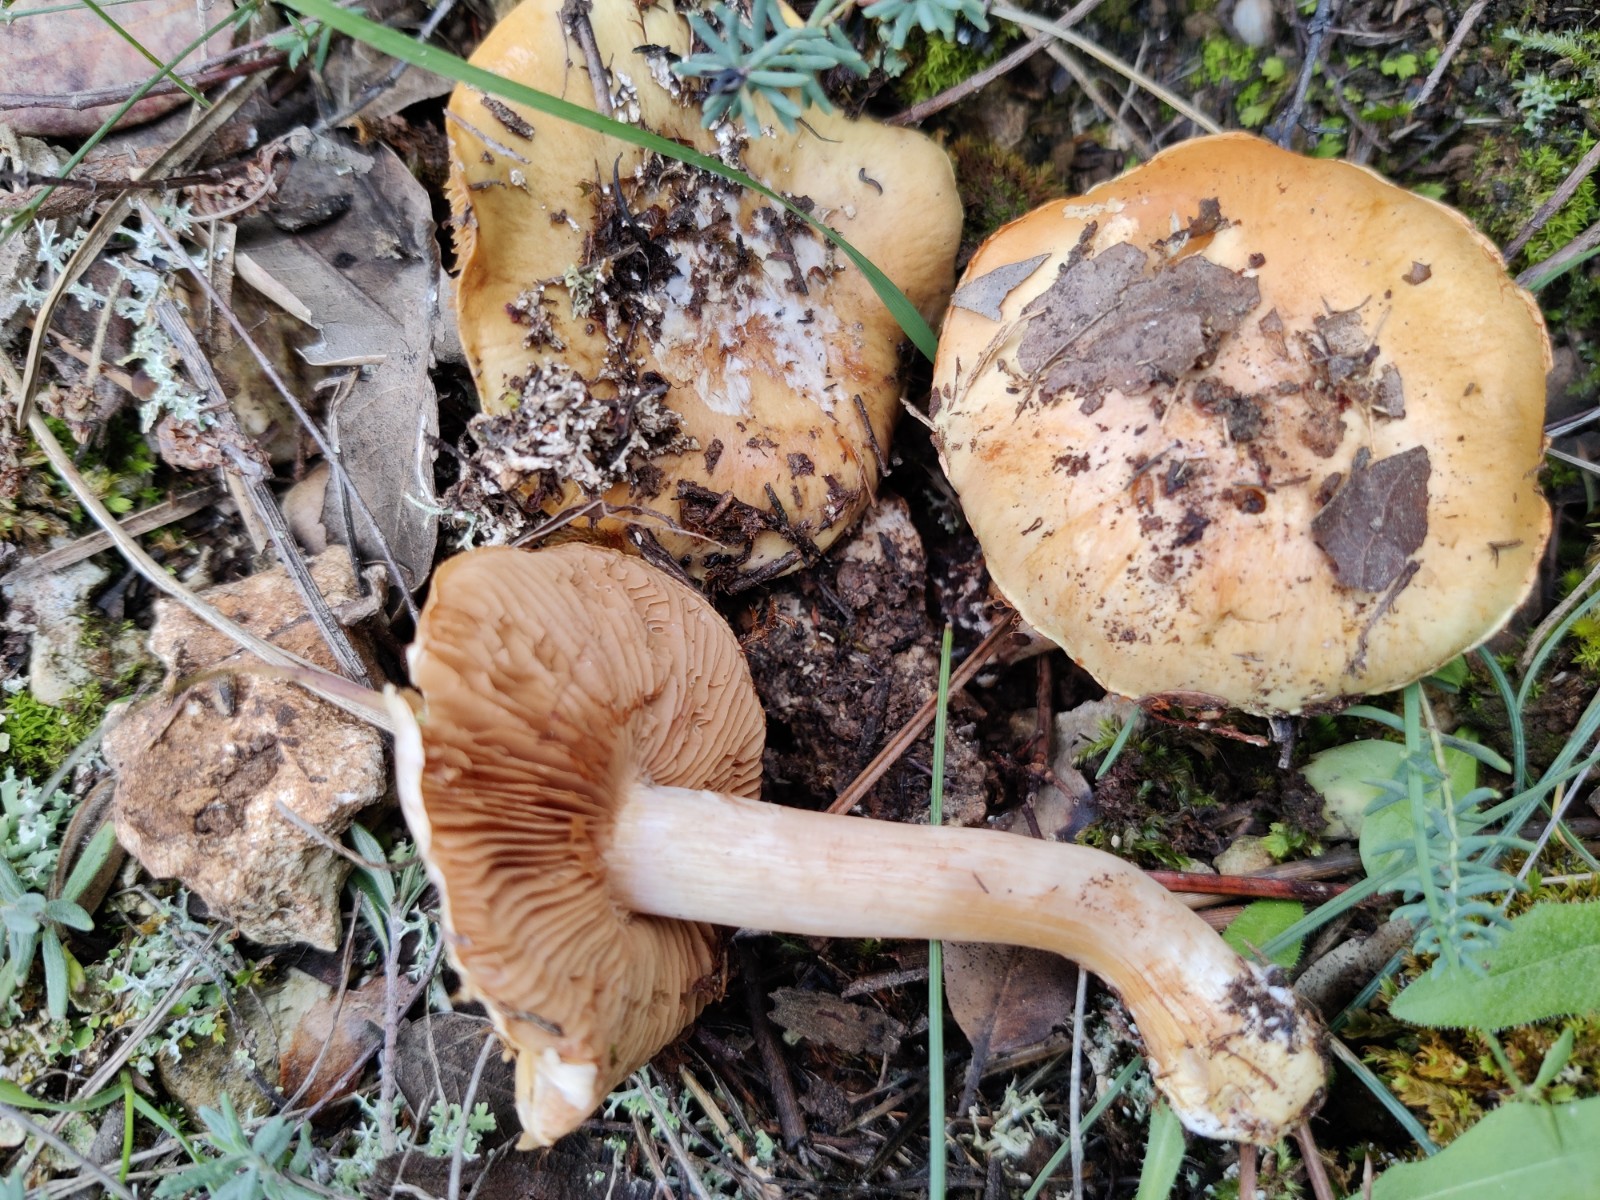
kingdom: Fungi
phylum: Basidiomycota
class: Agaricomycetes
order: Agaricales
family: Cortinariaceae
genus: Calonarius
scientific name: Calonarius lavandulochlorus
